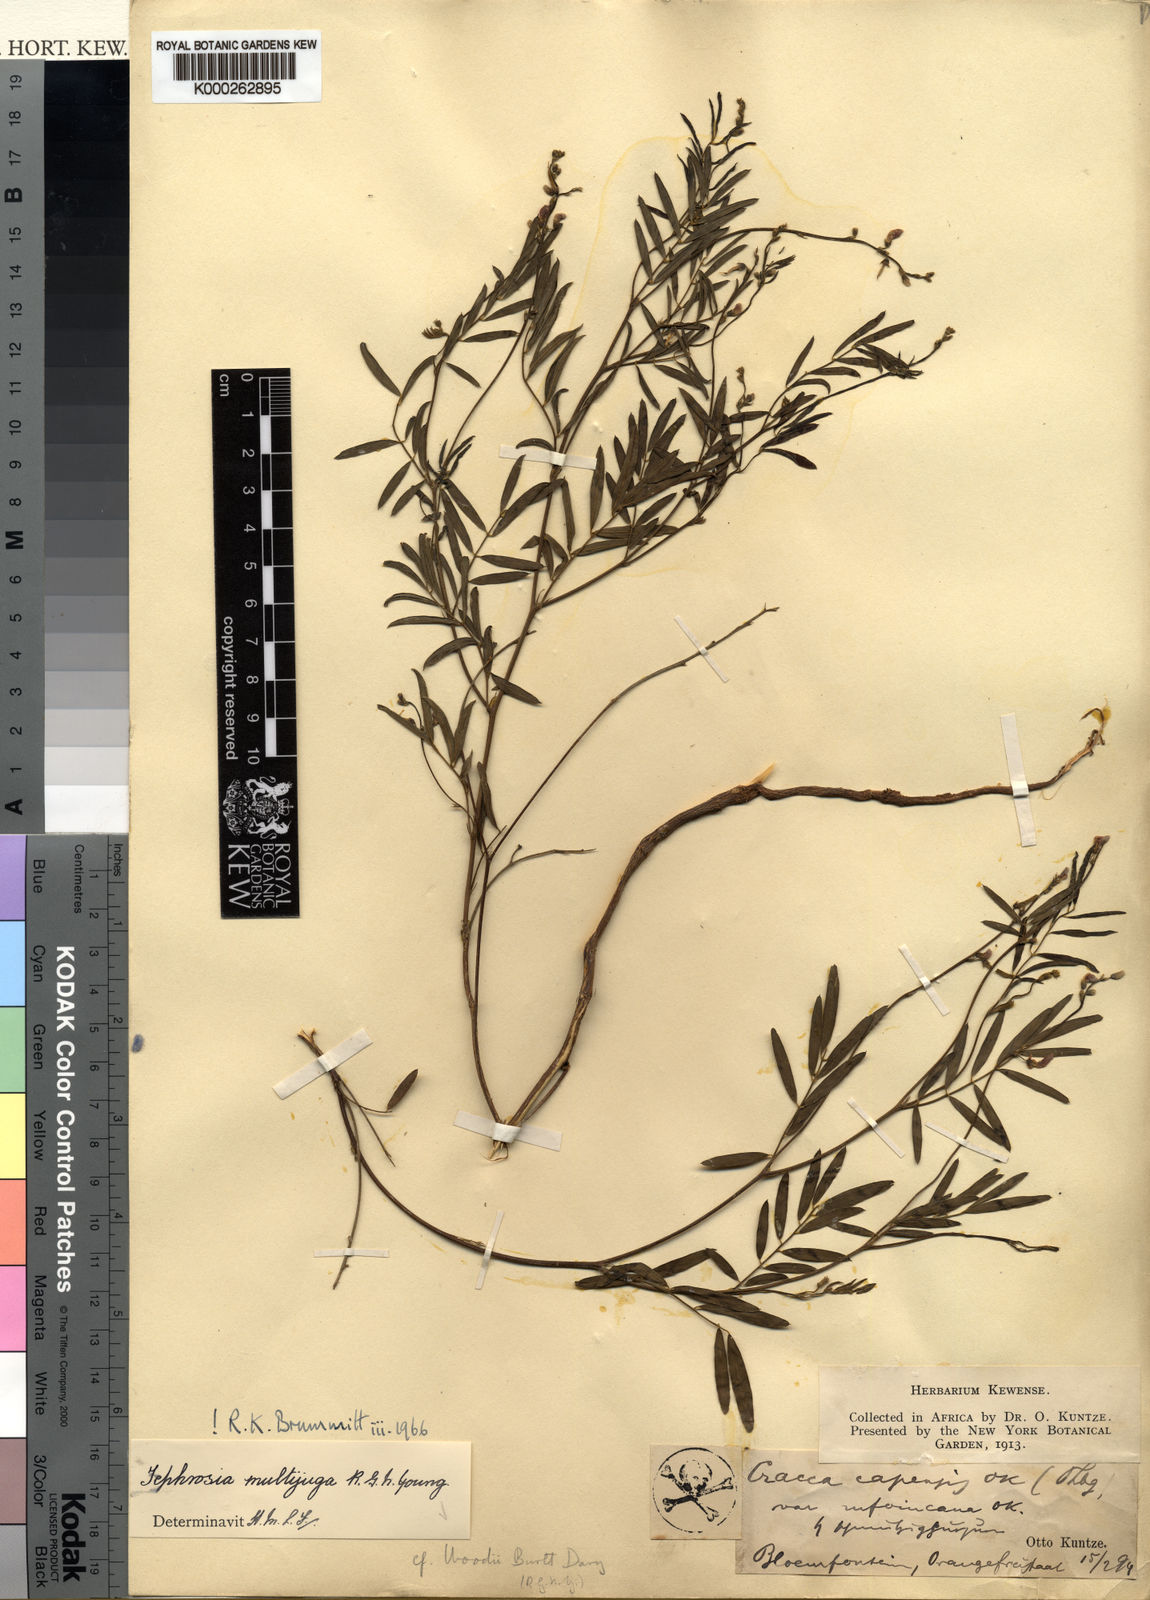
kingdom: Plantae
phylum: Tracheophyta
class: Magnoliopsida
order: Fabales
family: Fabaceae
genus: Tephrosia
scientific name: Tephrosia multijuga
